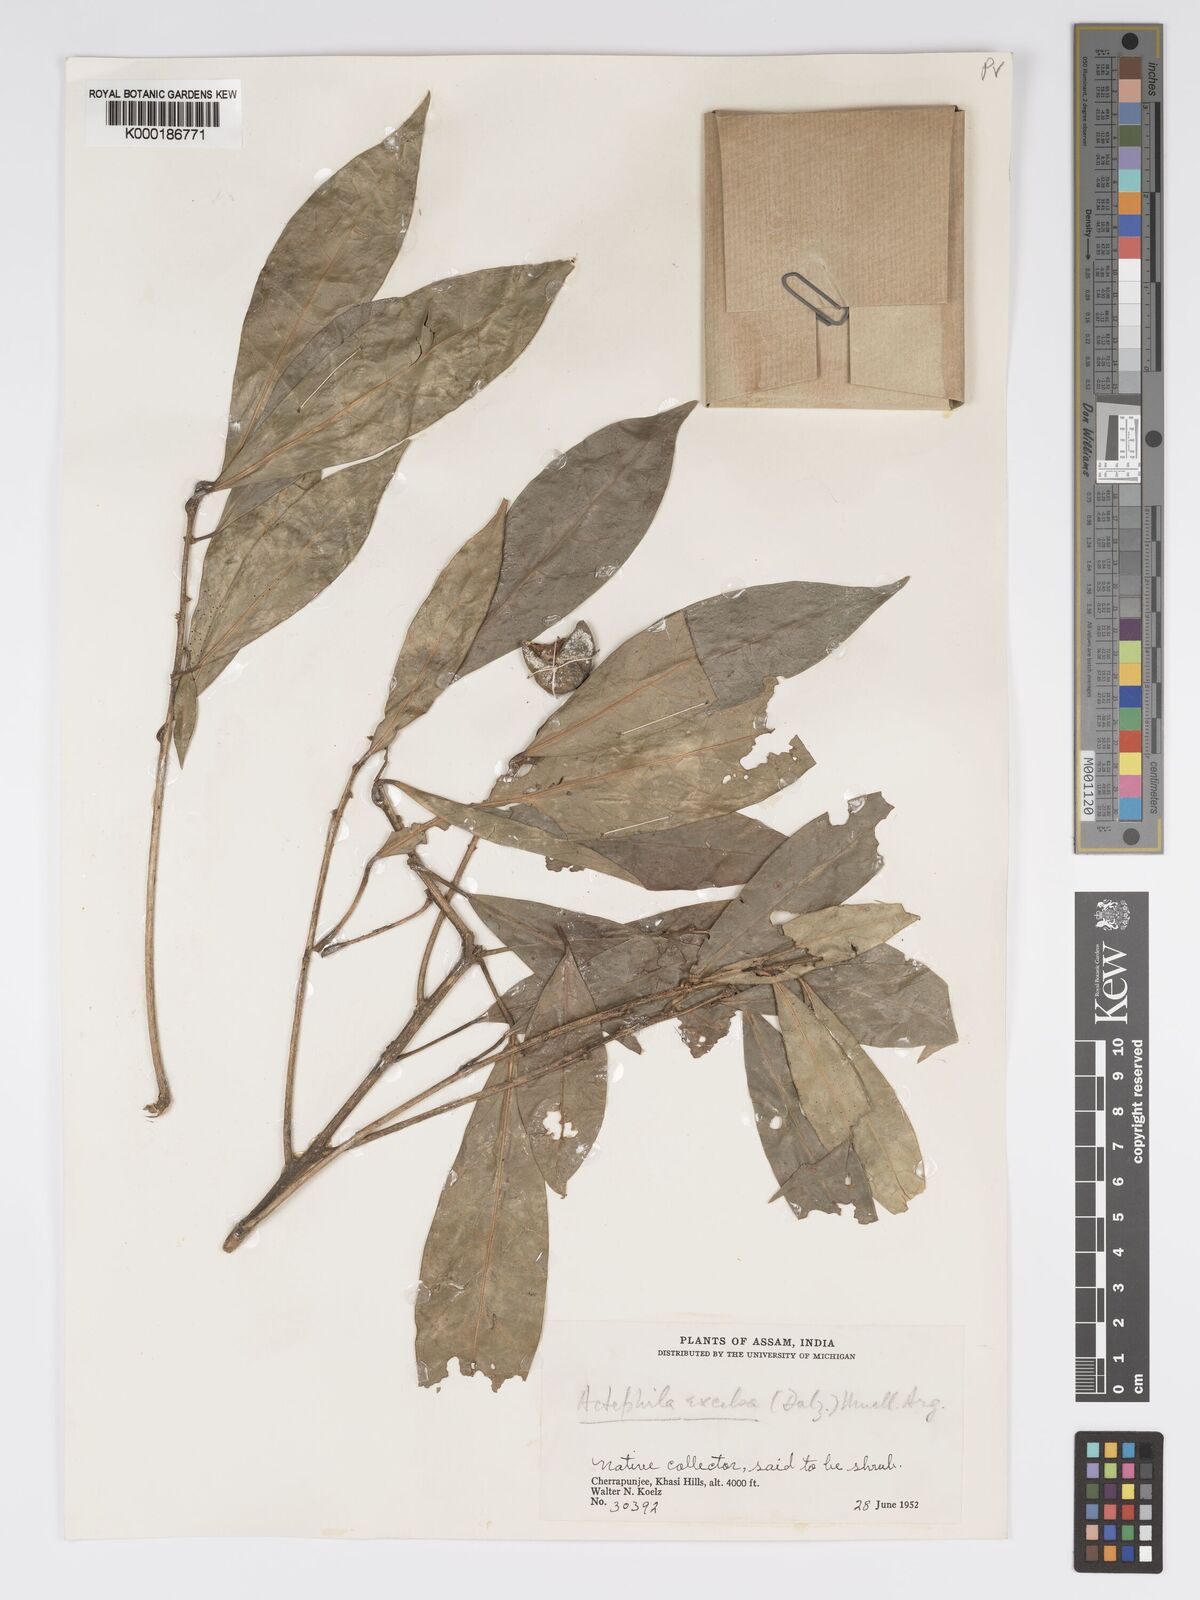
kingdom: Plantae
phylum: Tracheophyta
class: Magnoliopsida
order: Malpighiales
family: Phyllanthaceae
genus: Actephila
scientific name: Actephila excelsa
